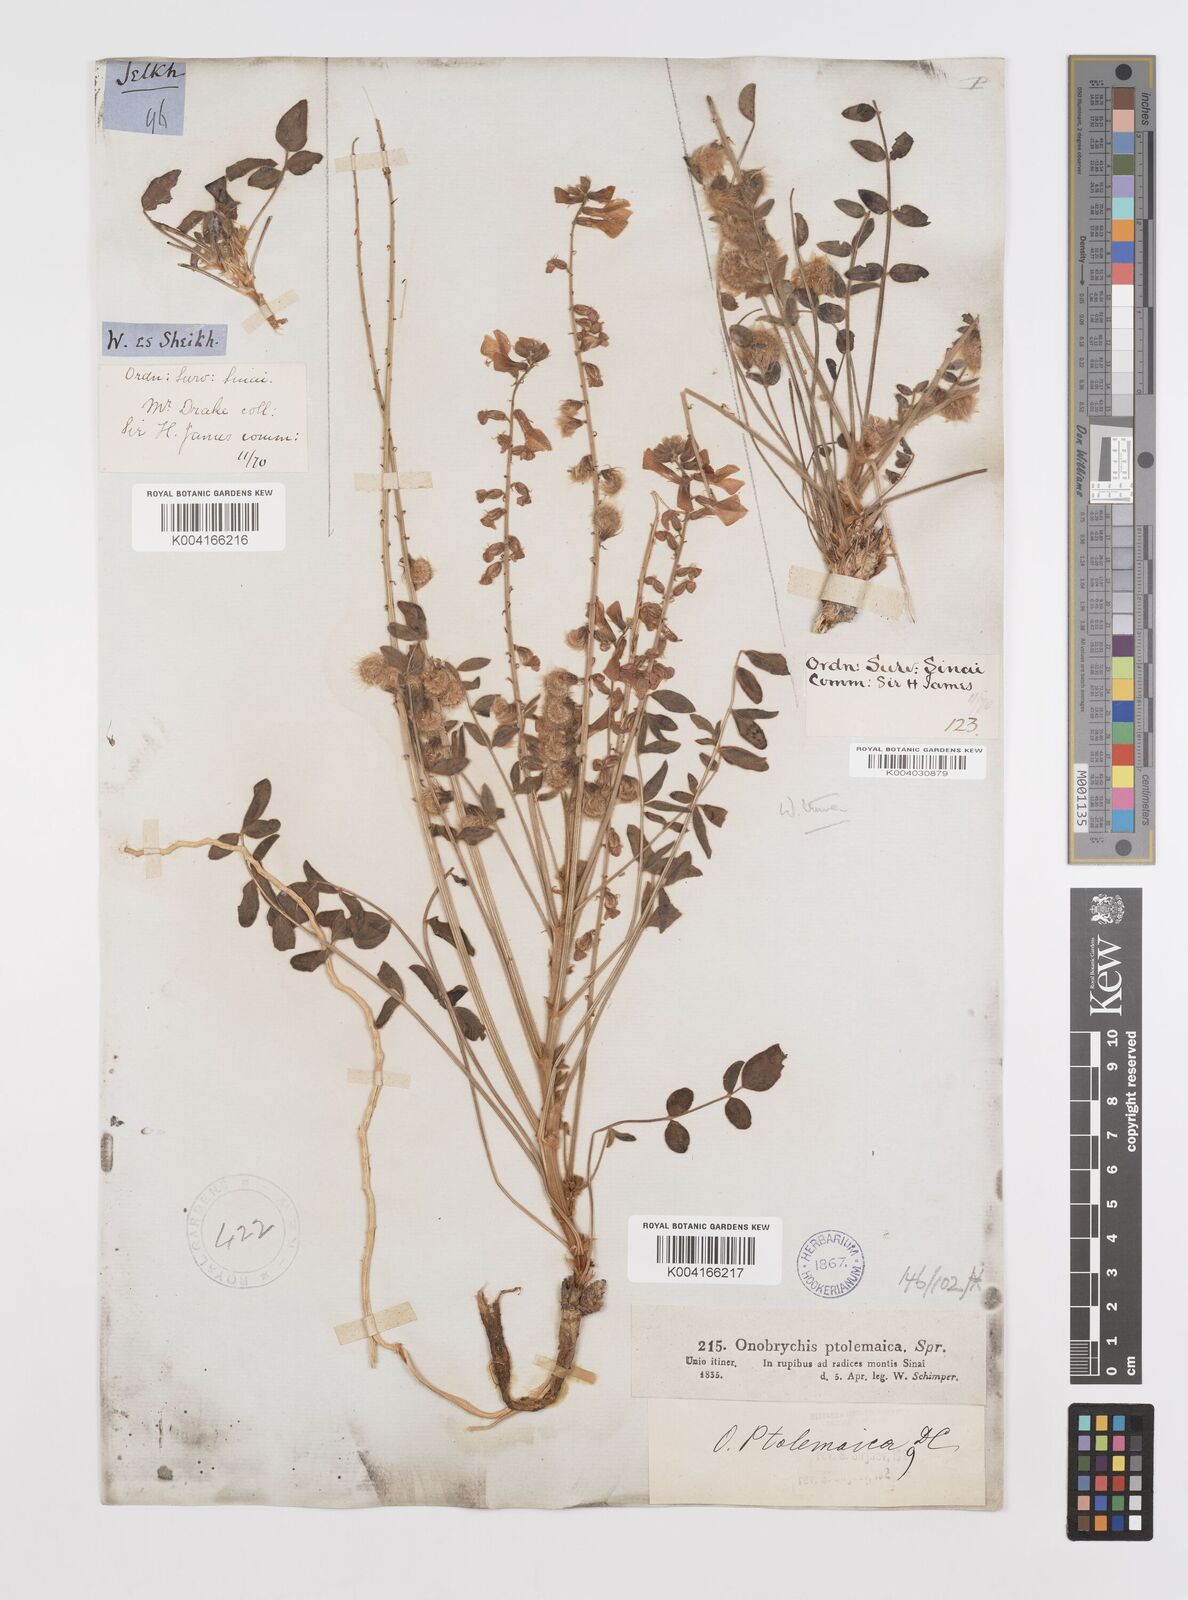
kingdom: Plantae
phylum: Tracheophyta
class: Magnoliopsida
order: Fabales
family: Fabaceae
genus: Onobrychis
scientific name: Onobrychis ptolemaica
